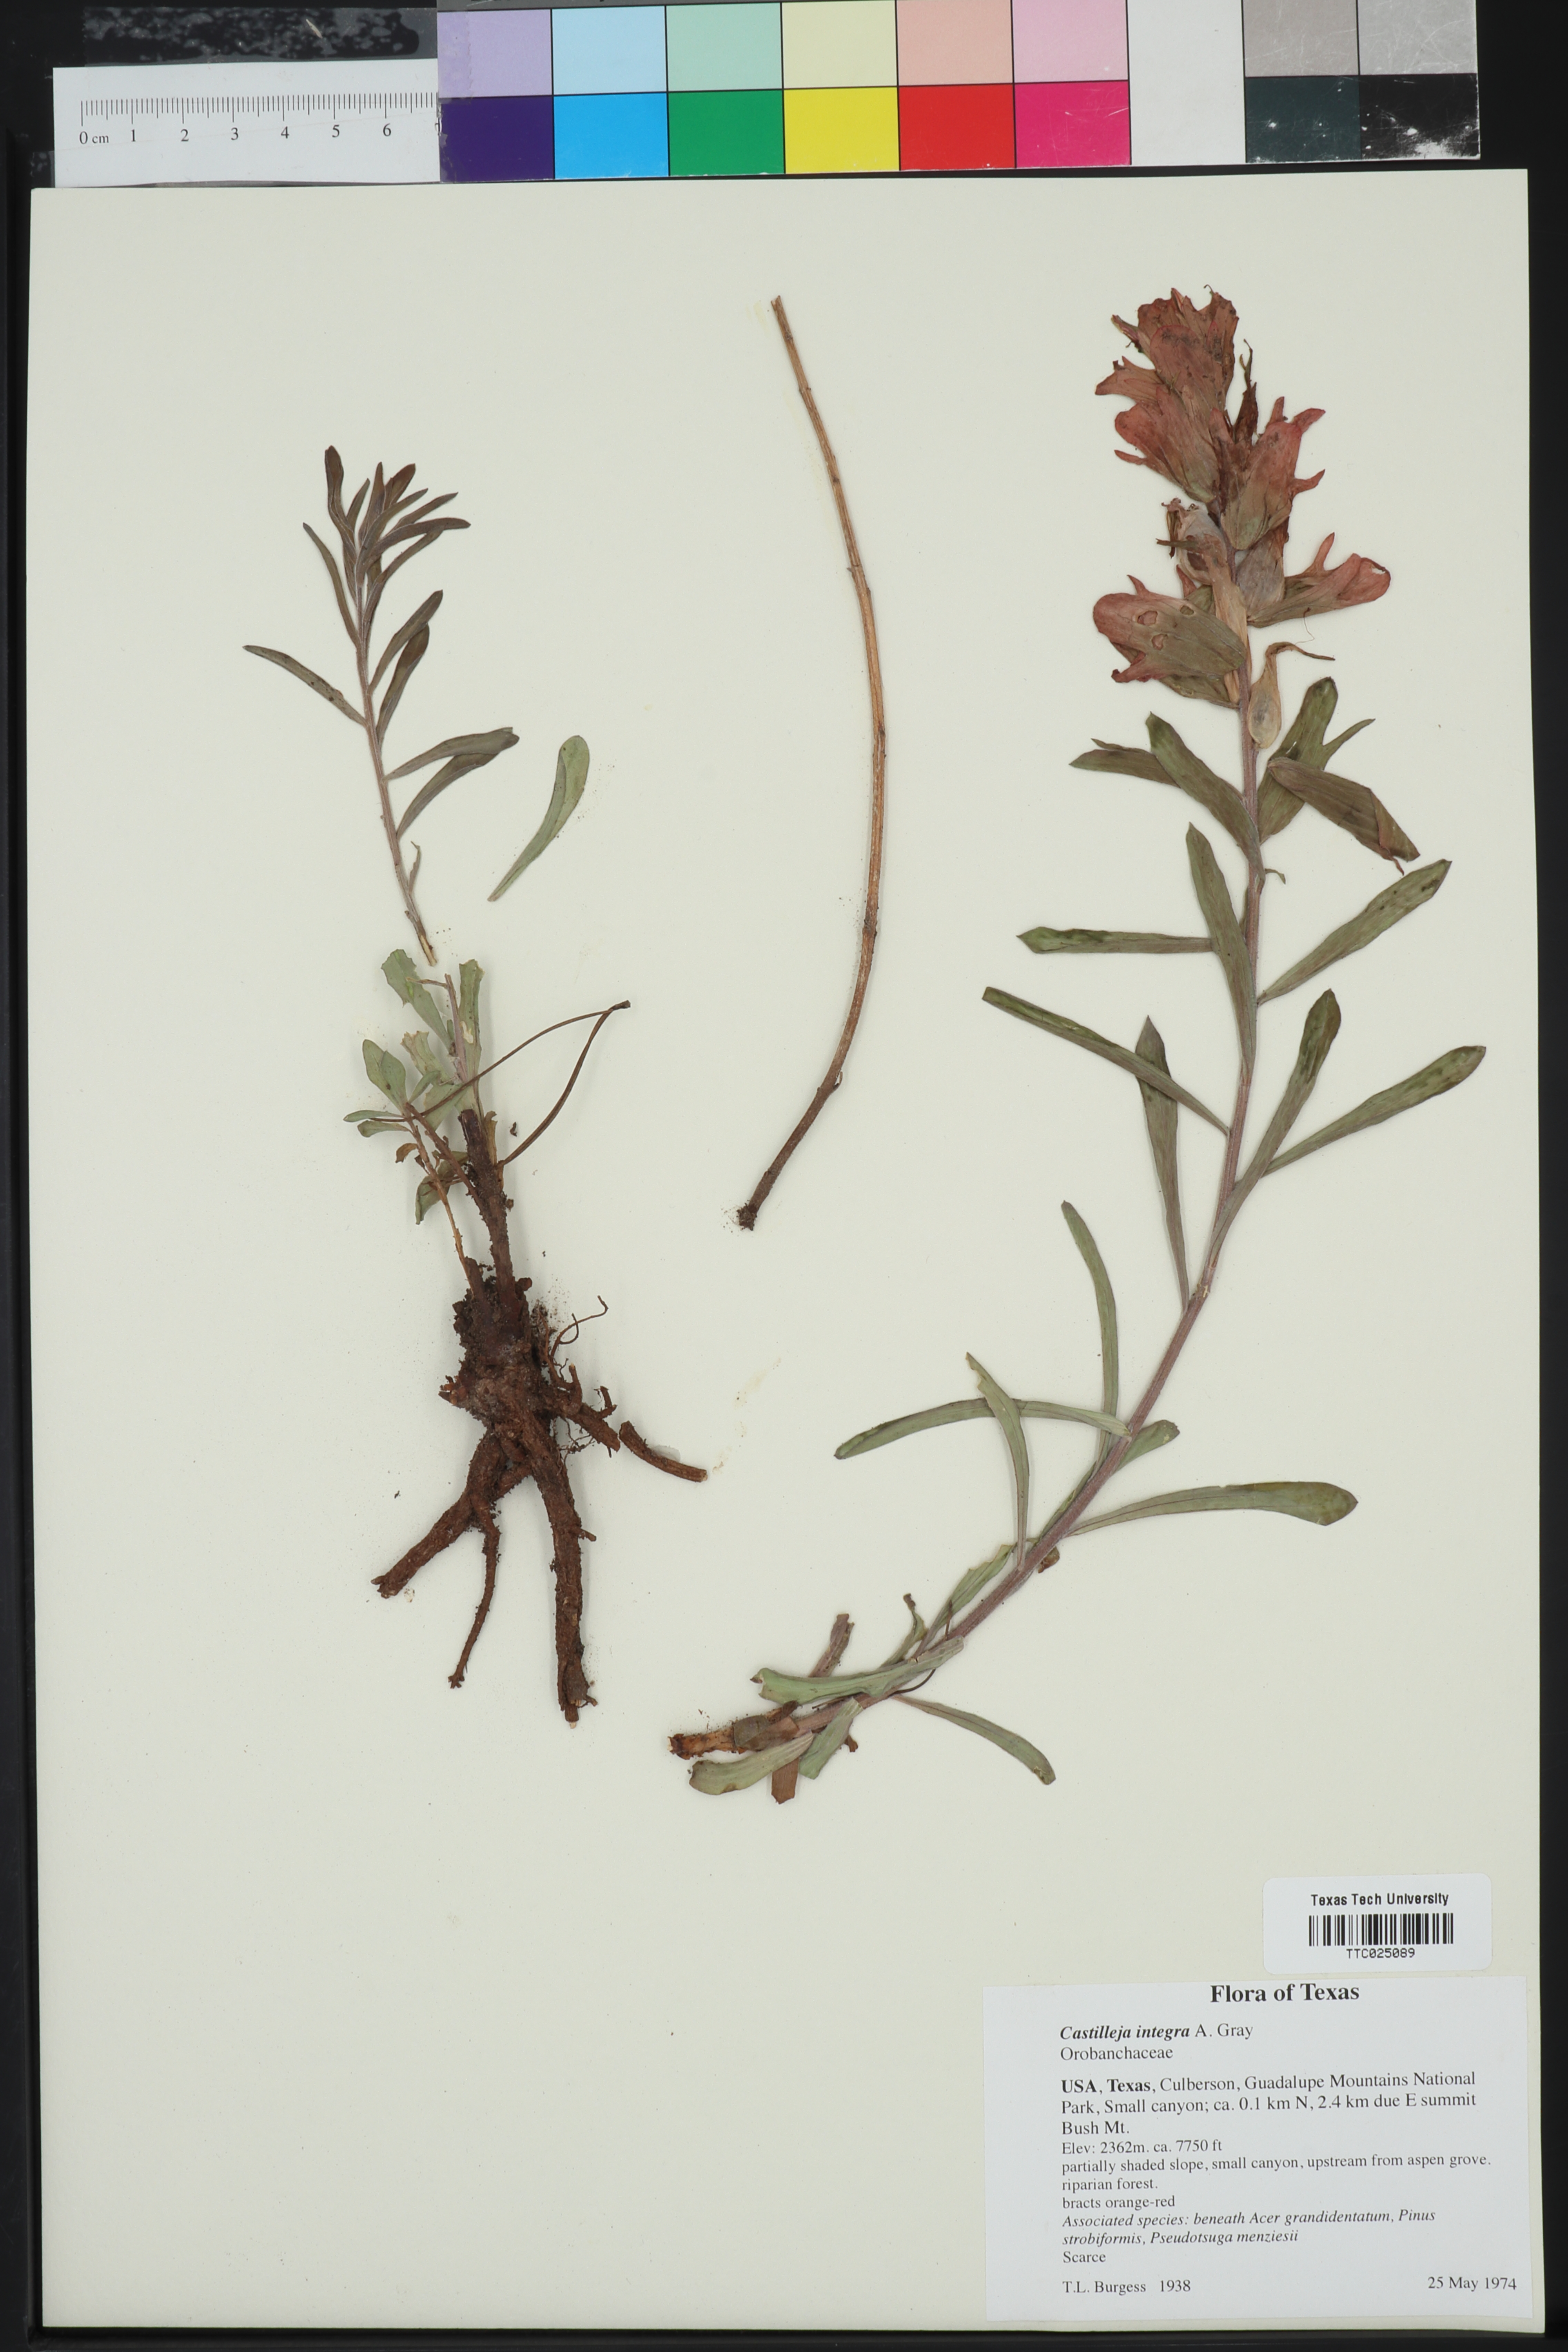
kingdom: Plantae
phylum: Tracheophyta
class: Magnoliopsida
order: Lamiales
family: Orobanchaceae
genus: Castilleja
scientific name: Castilleja integra
